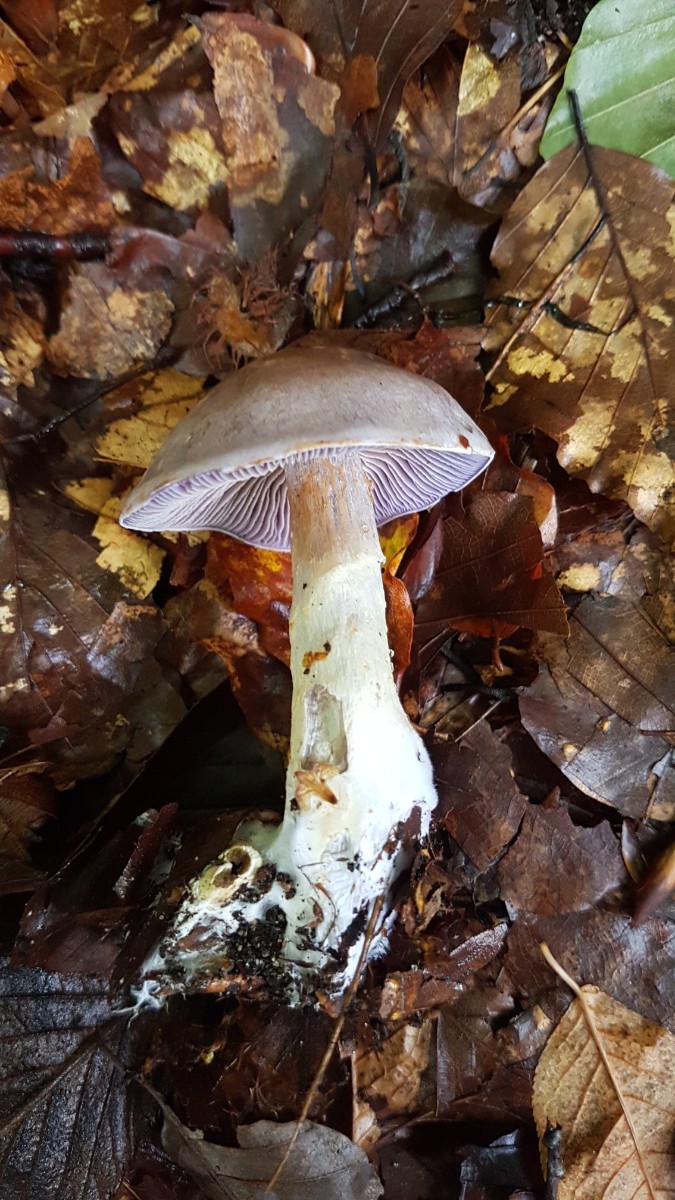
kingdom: Fungi
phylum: Basidiomycota
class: Agaricomycetes
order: Agaricales
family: Cortinariaceae
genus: Cortinarius
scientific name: Cortinarius
